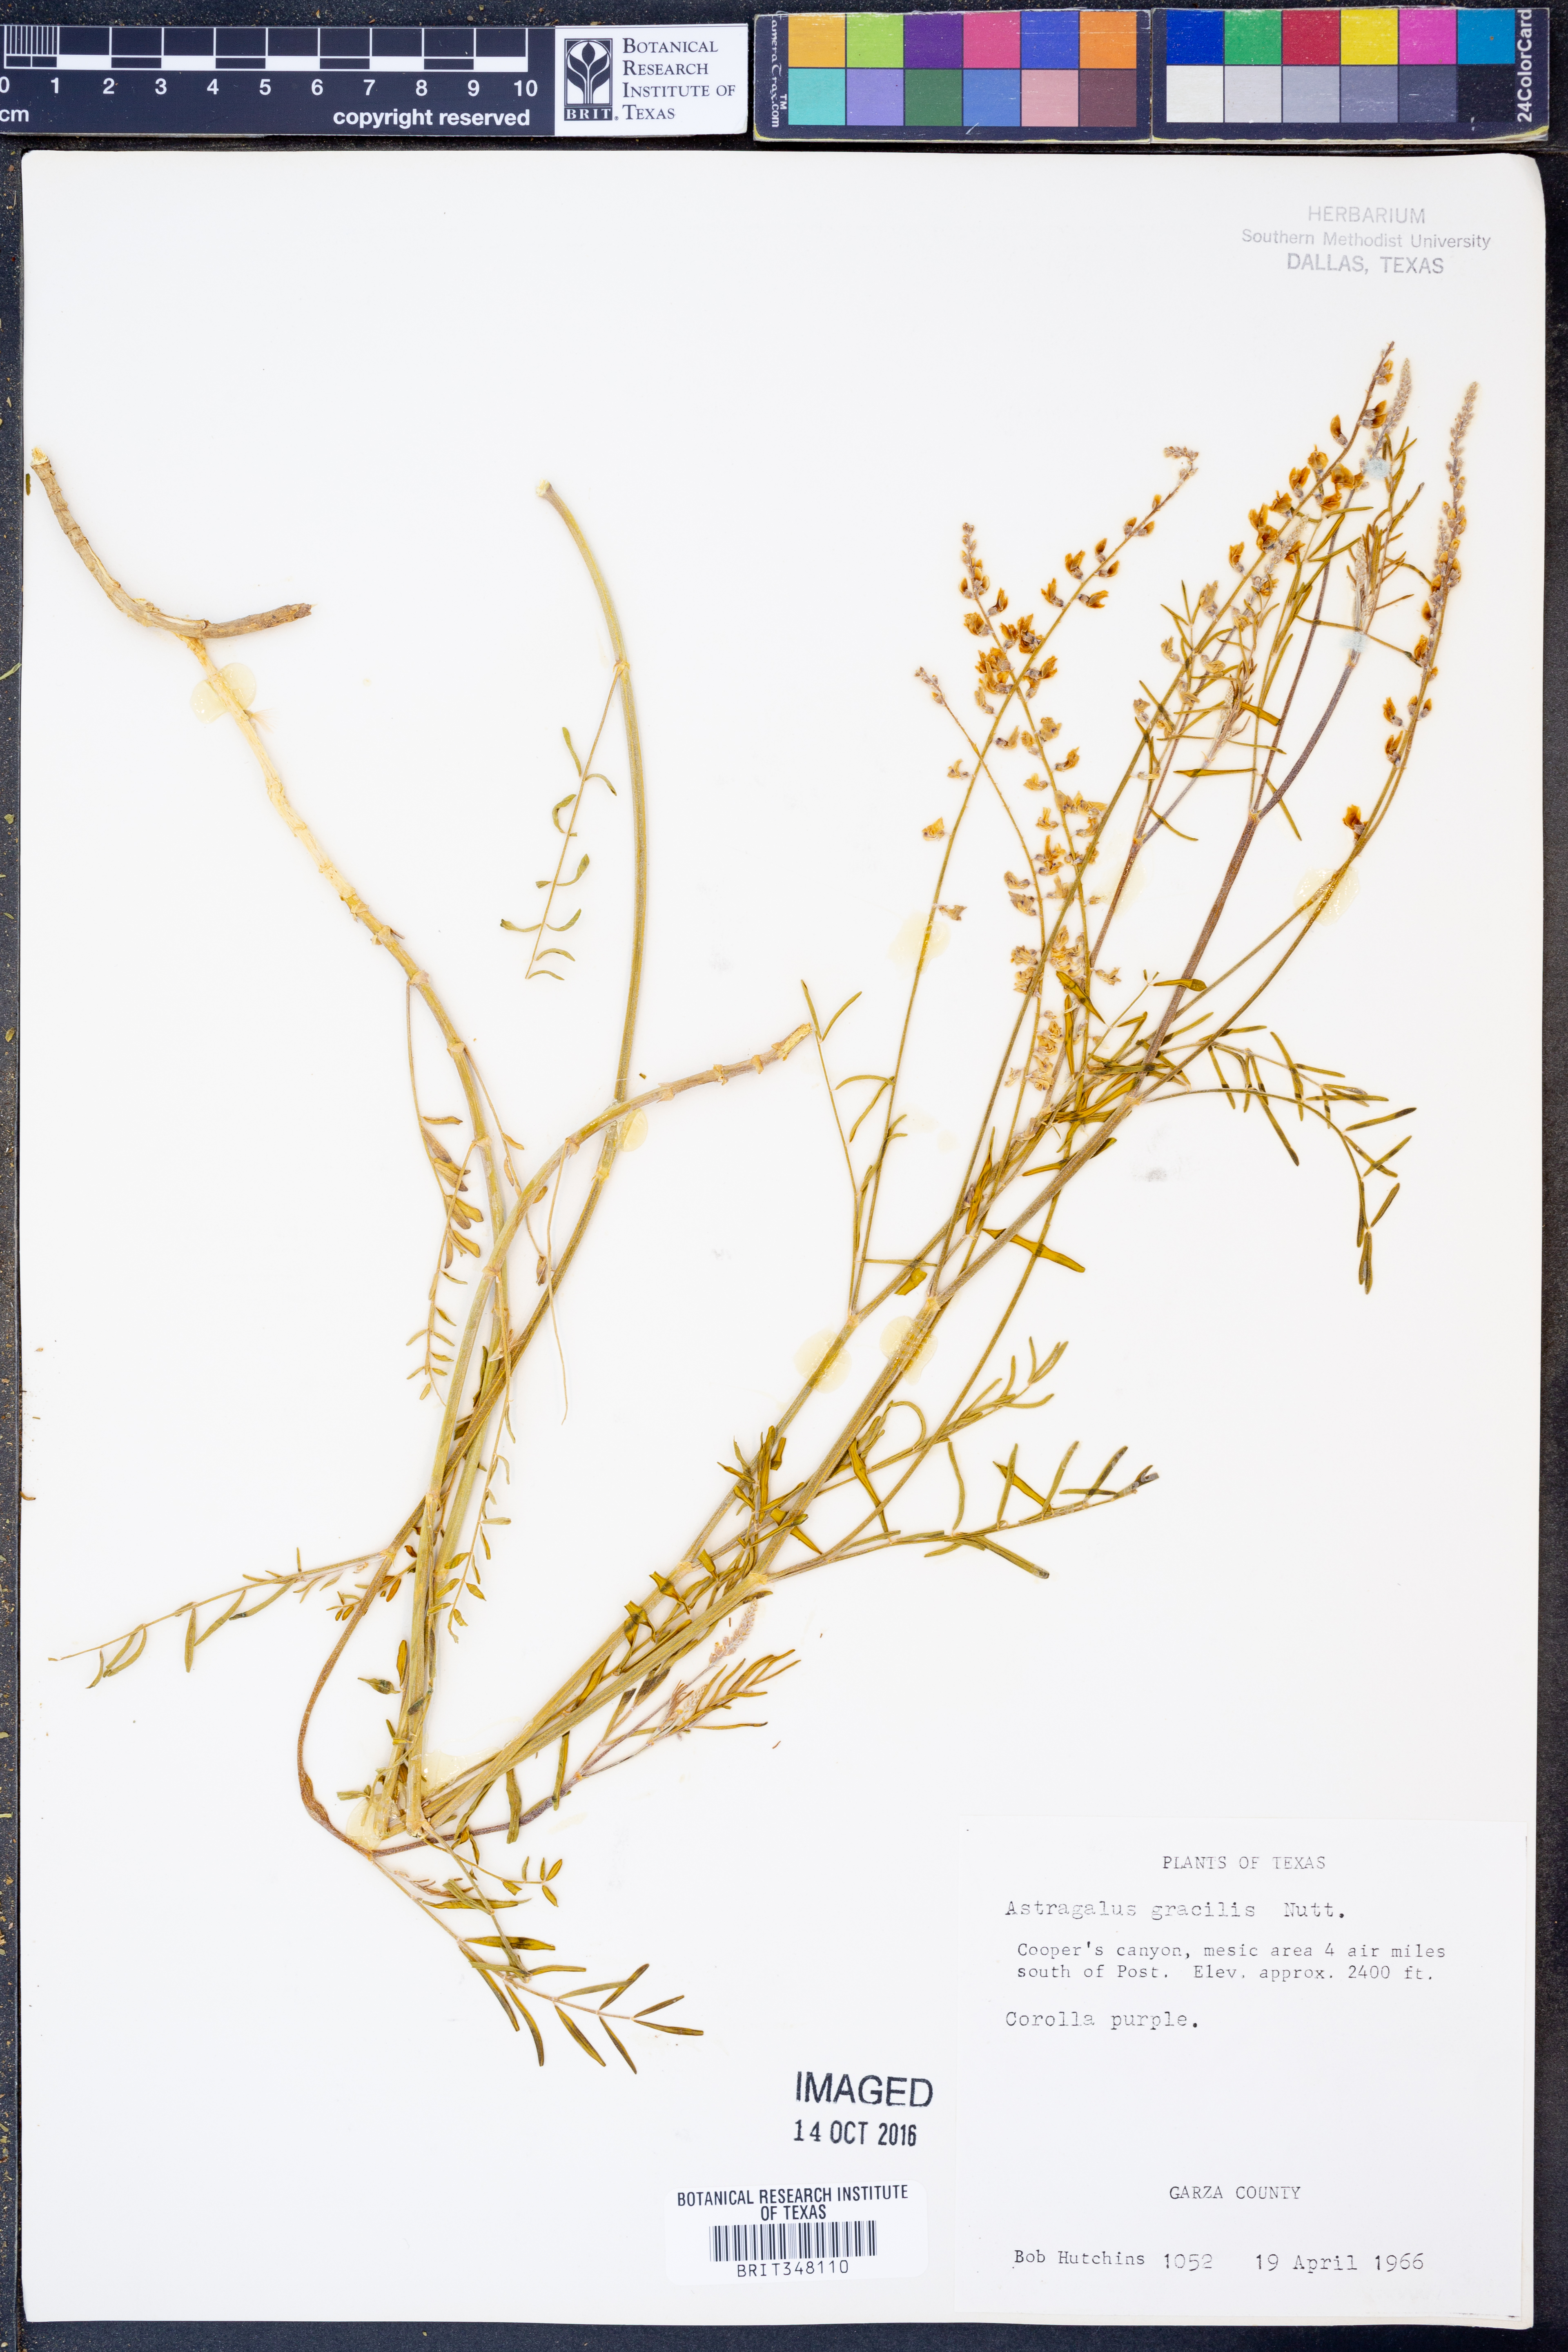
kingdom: Plantae
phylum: Tracheophyta
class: Magnoliopsida
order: Fabales
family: Fabaceae
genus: Astragalus
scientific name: Astragalus gracilis
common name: Slender milk-vetch
